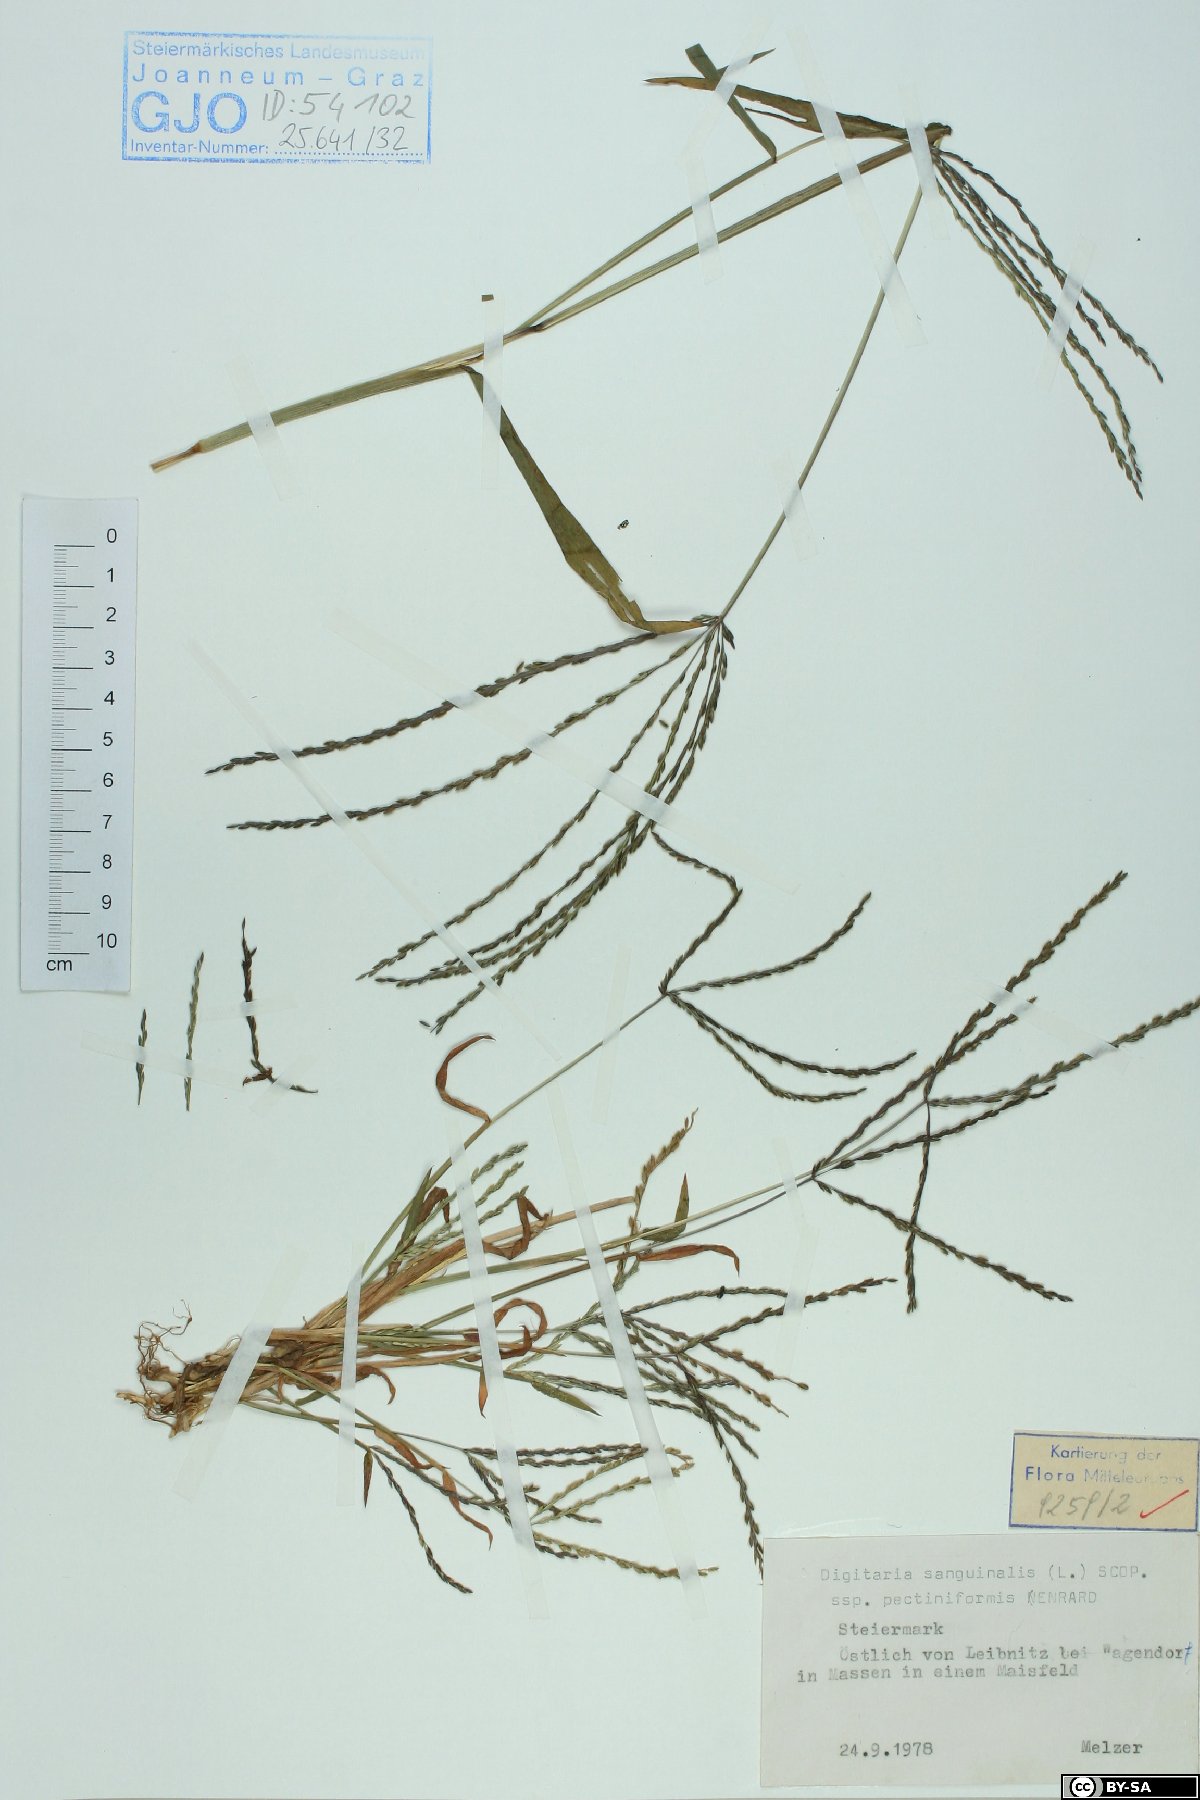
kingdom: Plantae
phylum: Tracheophyta
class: Liliopsida
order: Poales
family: Poaceae
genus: Digitaria
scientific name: Digitaria sanguinalis
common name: Hairy crabgrass
